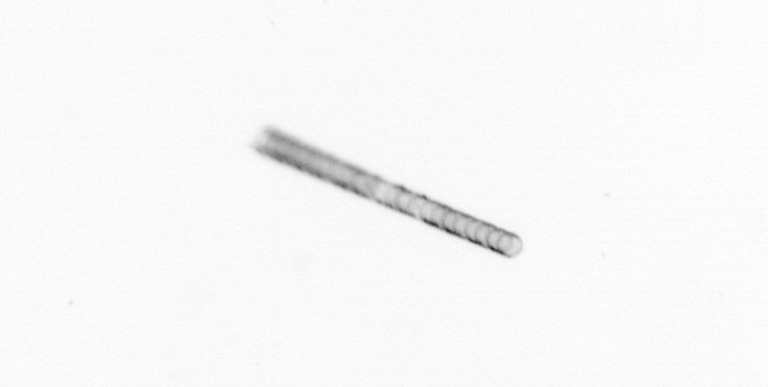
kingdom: Chromista
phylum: Ochrophyta
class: Bacillariophyceae
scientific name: Bacillariophyceae
